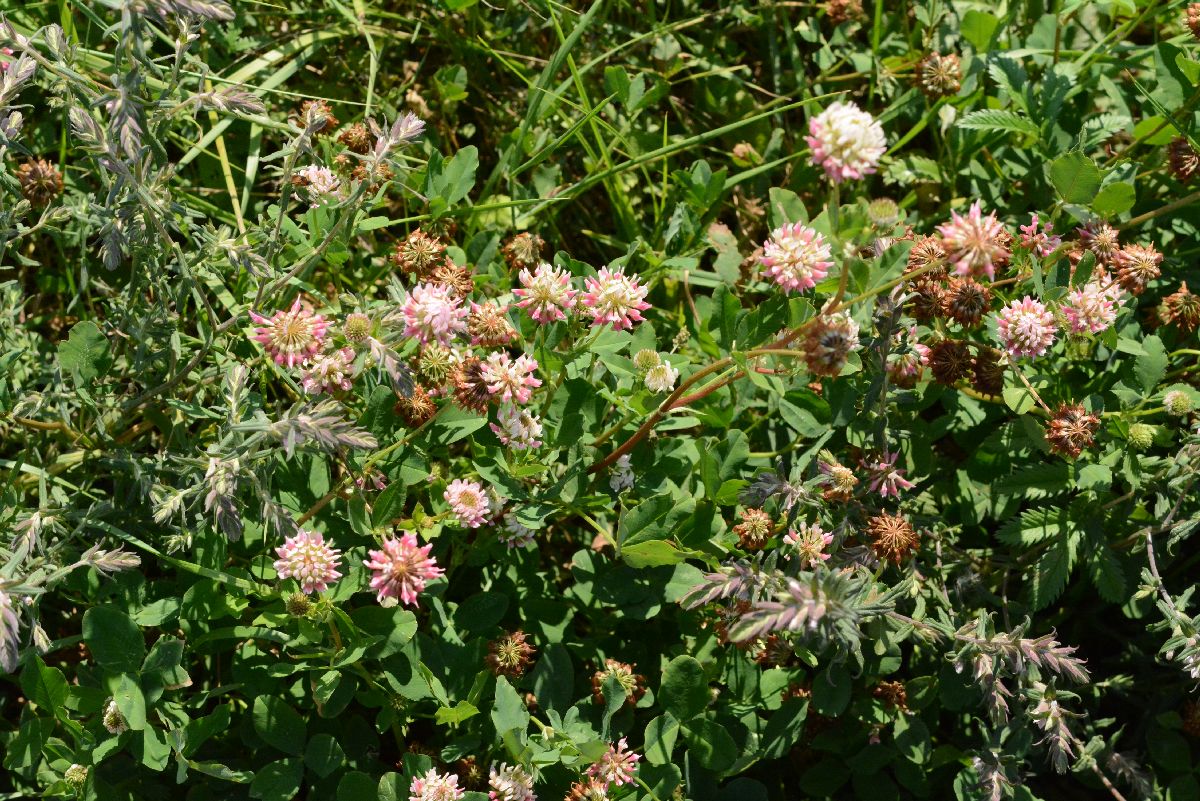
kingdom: Plantae
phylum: Tracheophyta
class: Magnoliopsida
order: Fabales
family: Fabaceae
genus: Trifolium
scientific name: Trifolium hybridum
